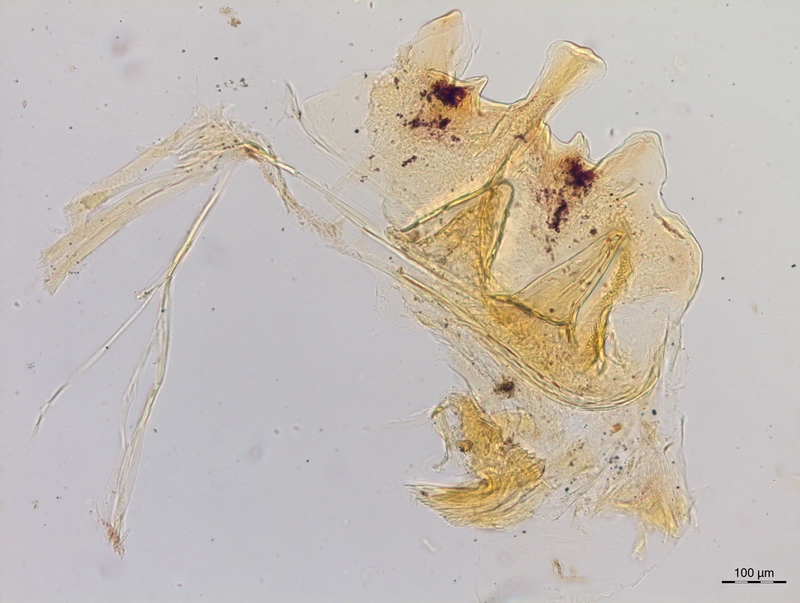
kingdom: Animalia
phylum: Arthropoda
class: Diplopoda
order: Chordeumatida
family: Craspedosomatidae
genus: Craspedosoma
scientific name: Craspedosoma rawlinsii
